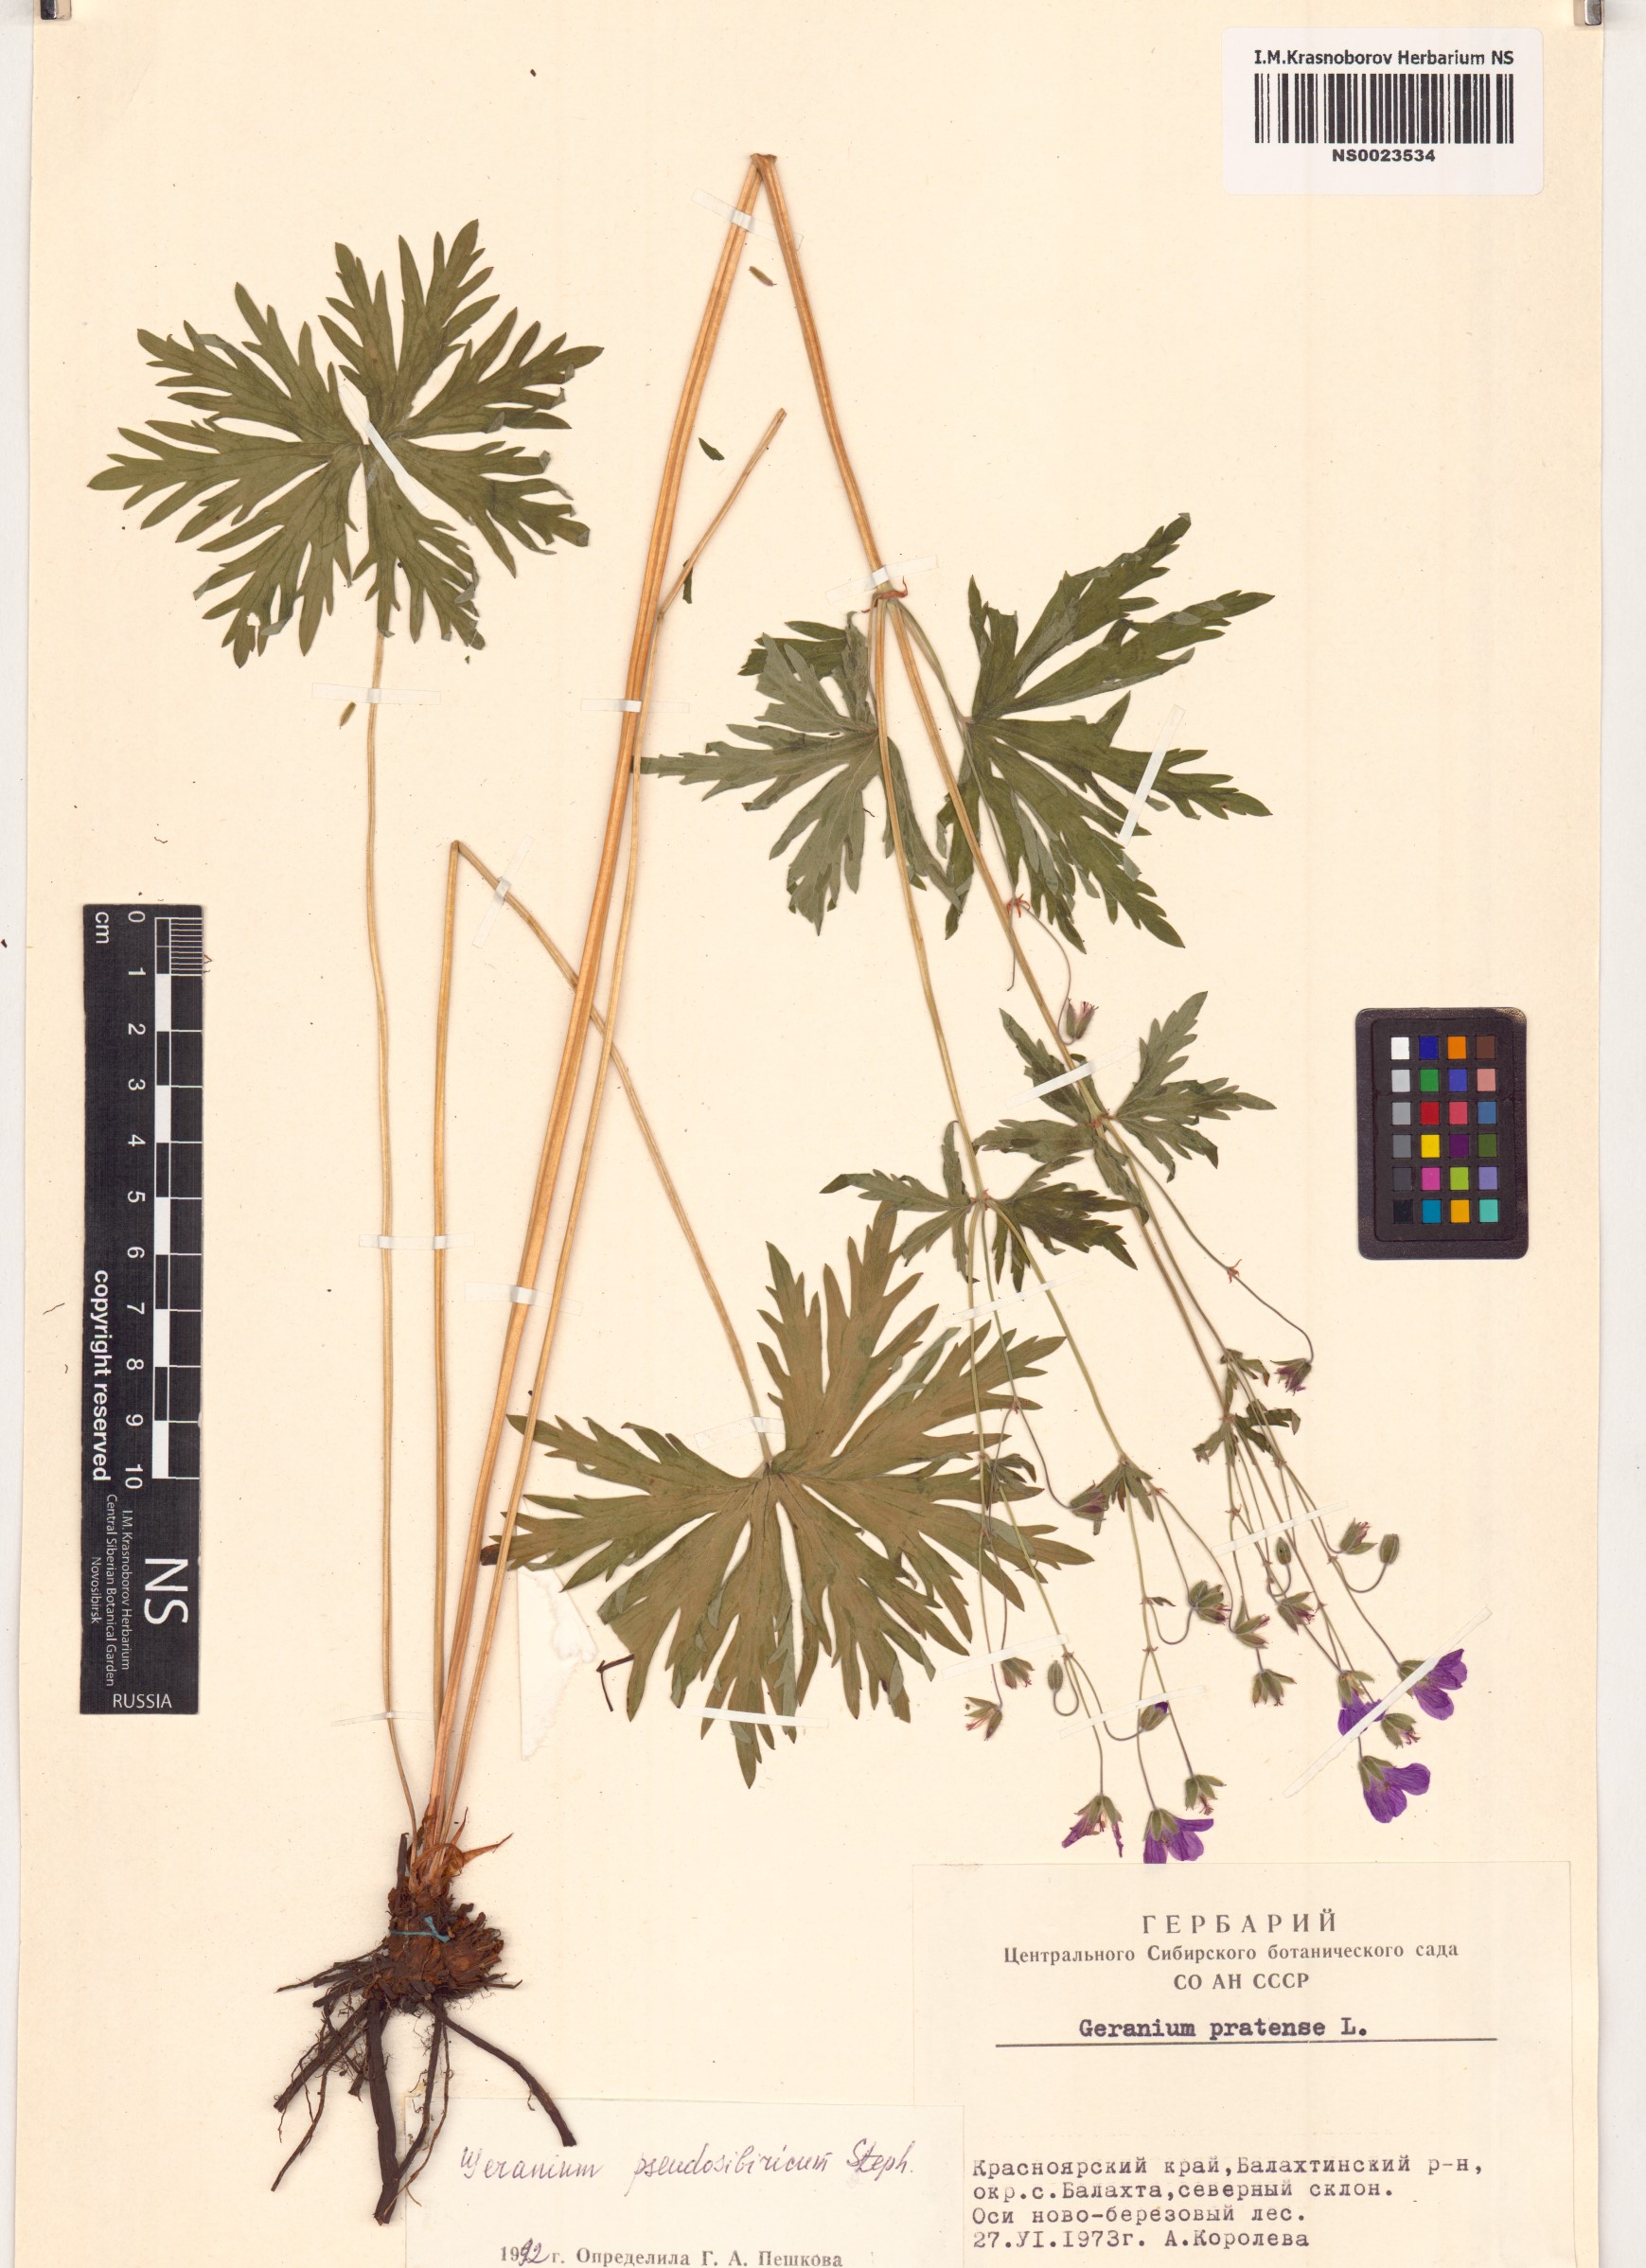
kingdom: Plantae
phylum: Tracheophyta
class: Magnoliopsida
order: Geraniales
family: Geraniaceae
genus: Geranium
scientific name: Geranium pseudosibiricum
